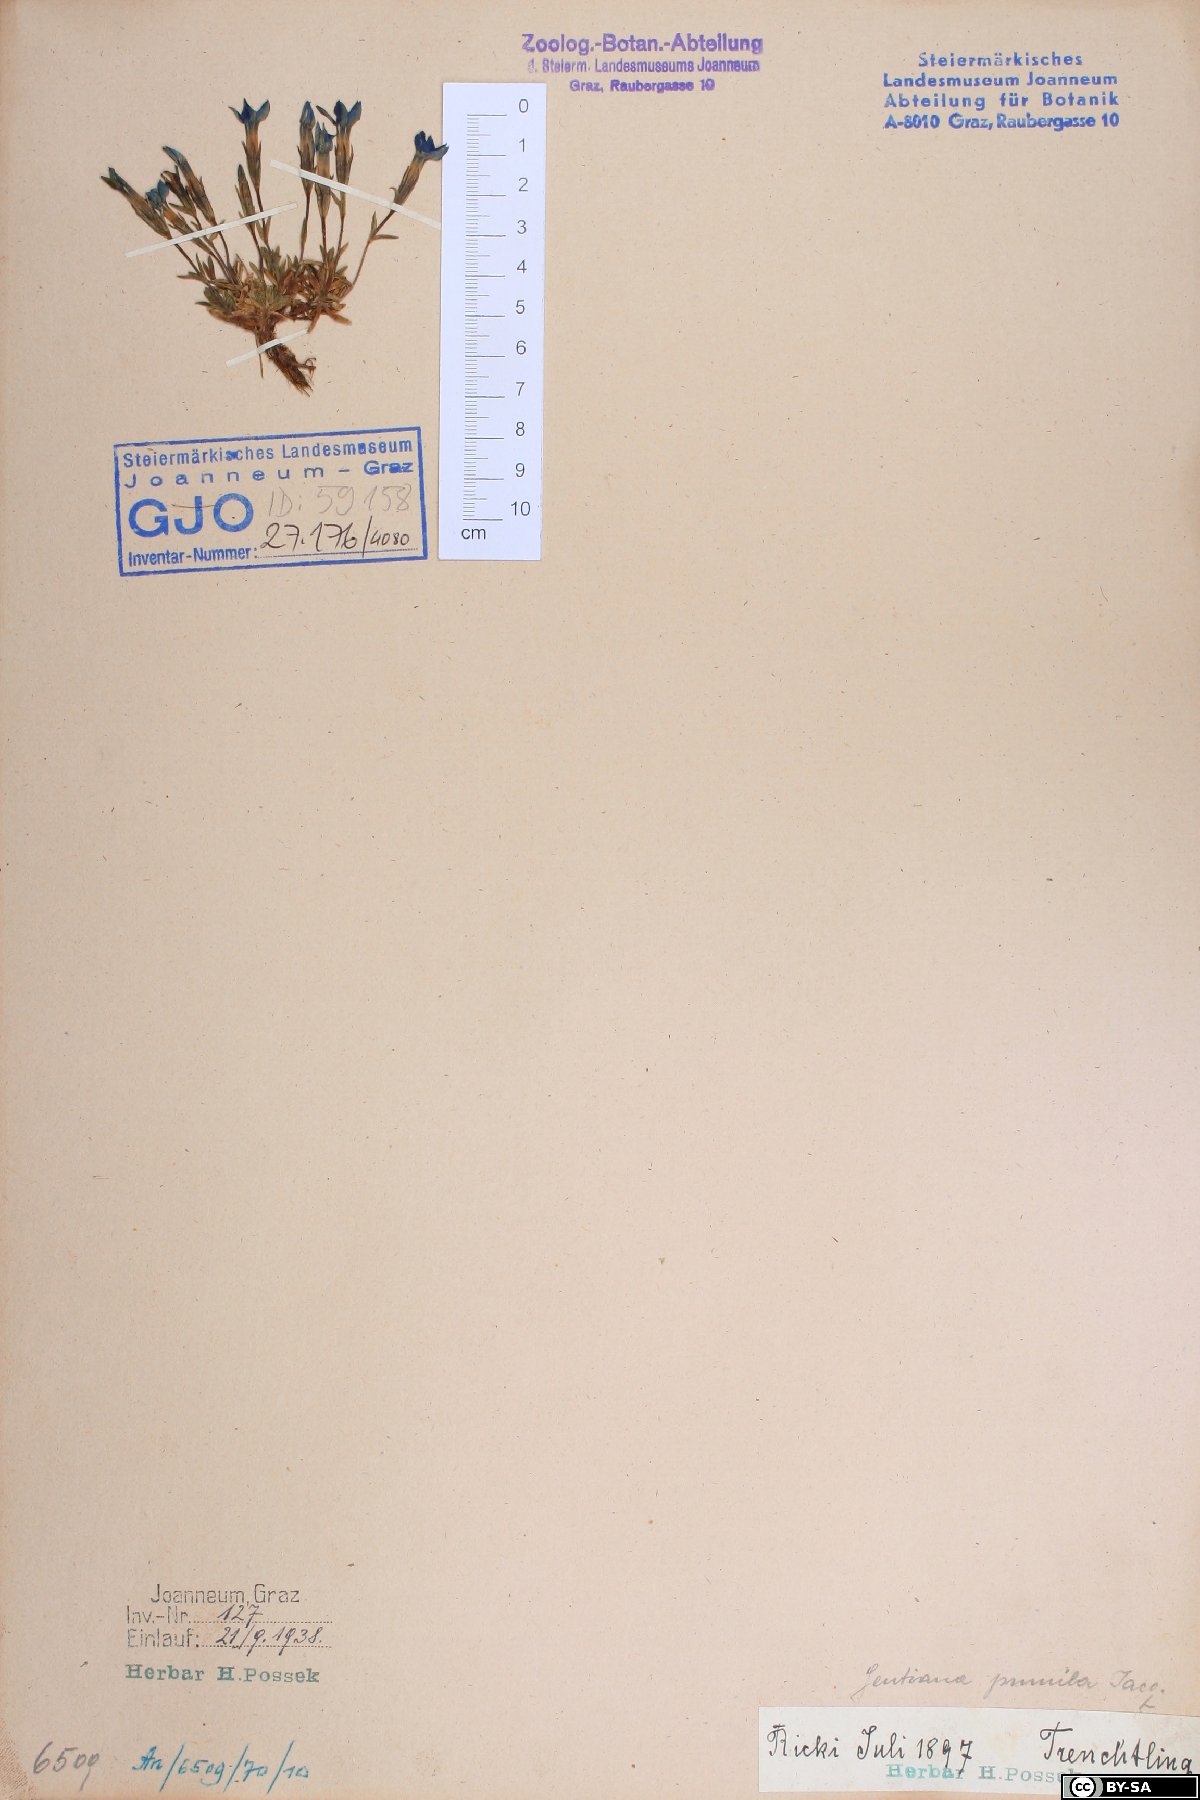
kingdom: Plantae
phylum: Tracheophyta
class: Magnoliopsida
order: Gentianales
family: Gentianaceae
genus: Gentiana
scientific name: Gentiana pumila
